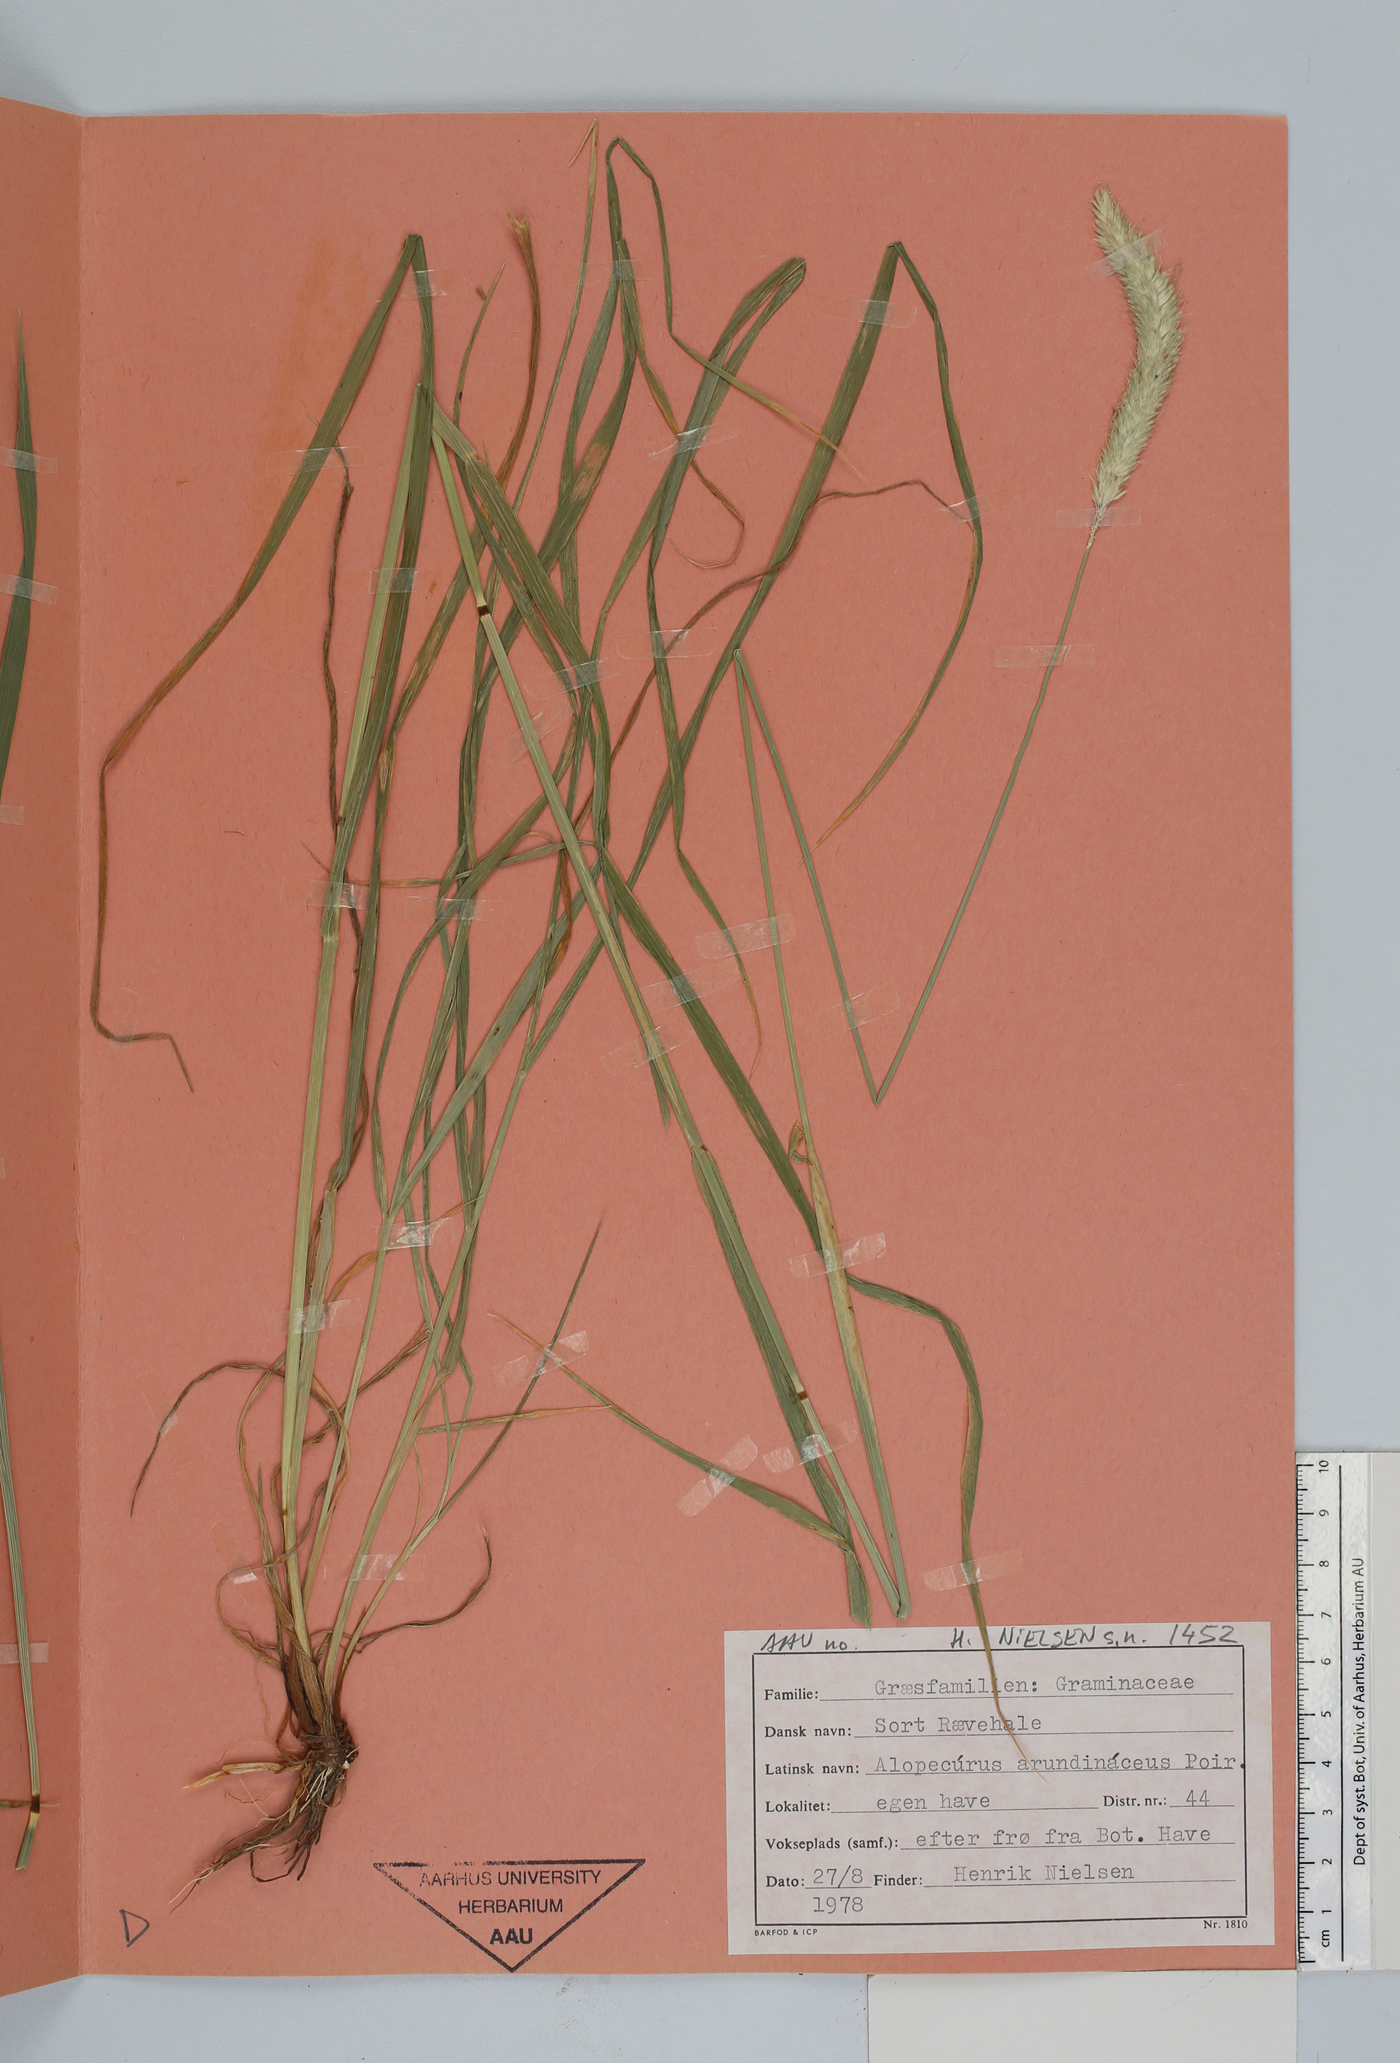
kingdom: Plantae
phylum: Tracheophyta
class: Liliopsida
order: Poales
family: Poaceae
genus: Alopecurus
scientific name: Alopecurus arundinaceus
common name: Creeping meadow foxtail
